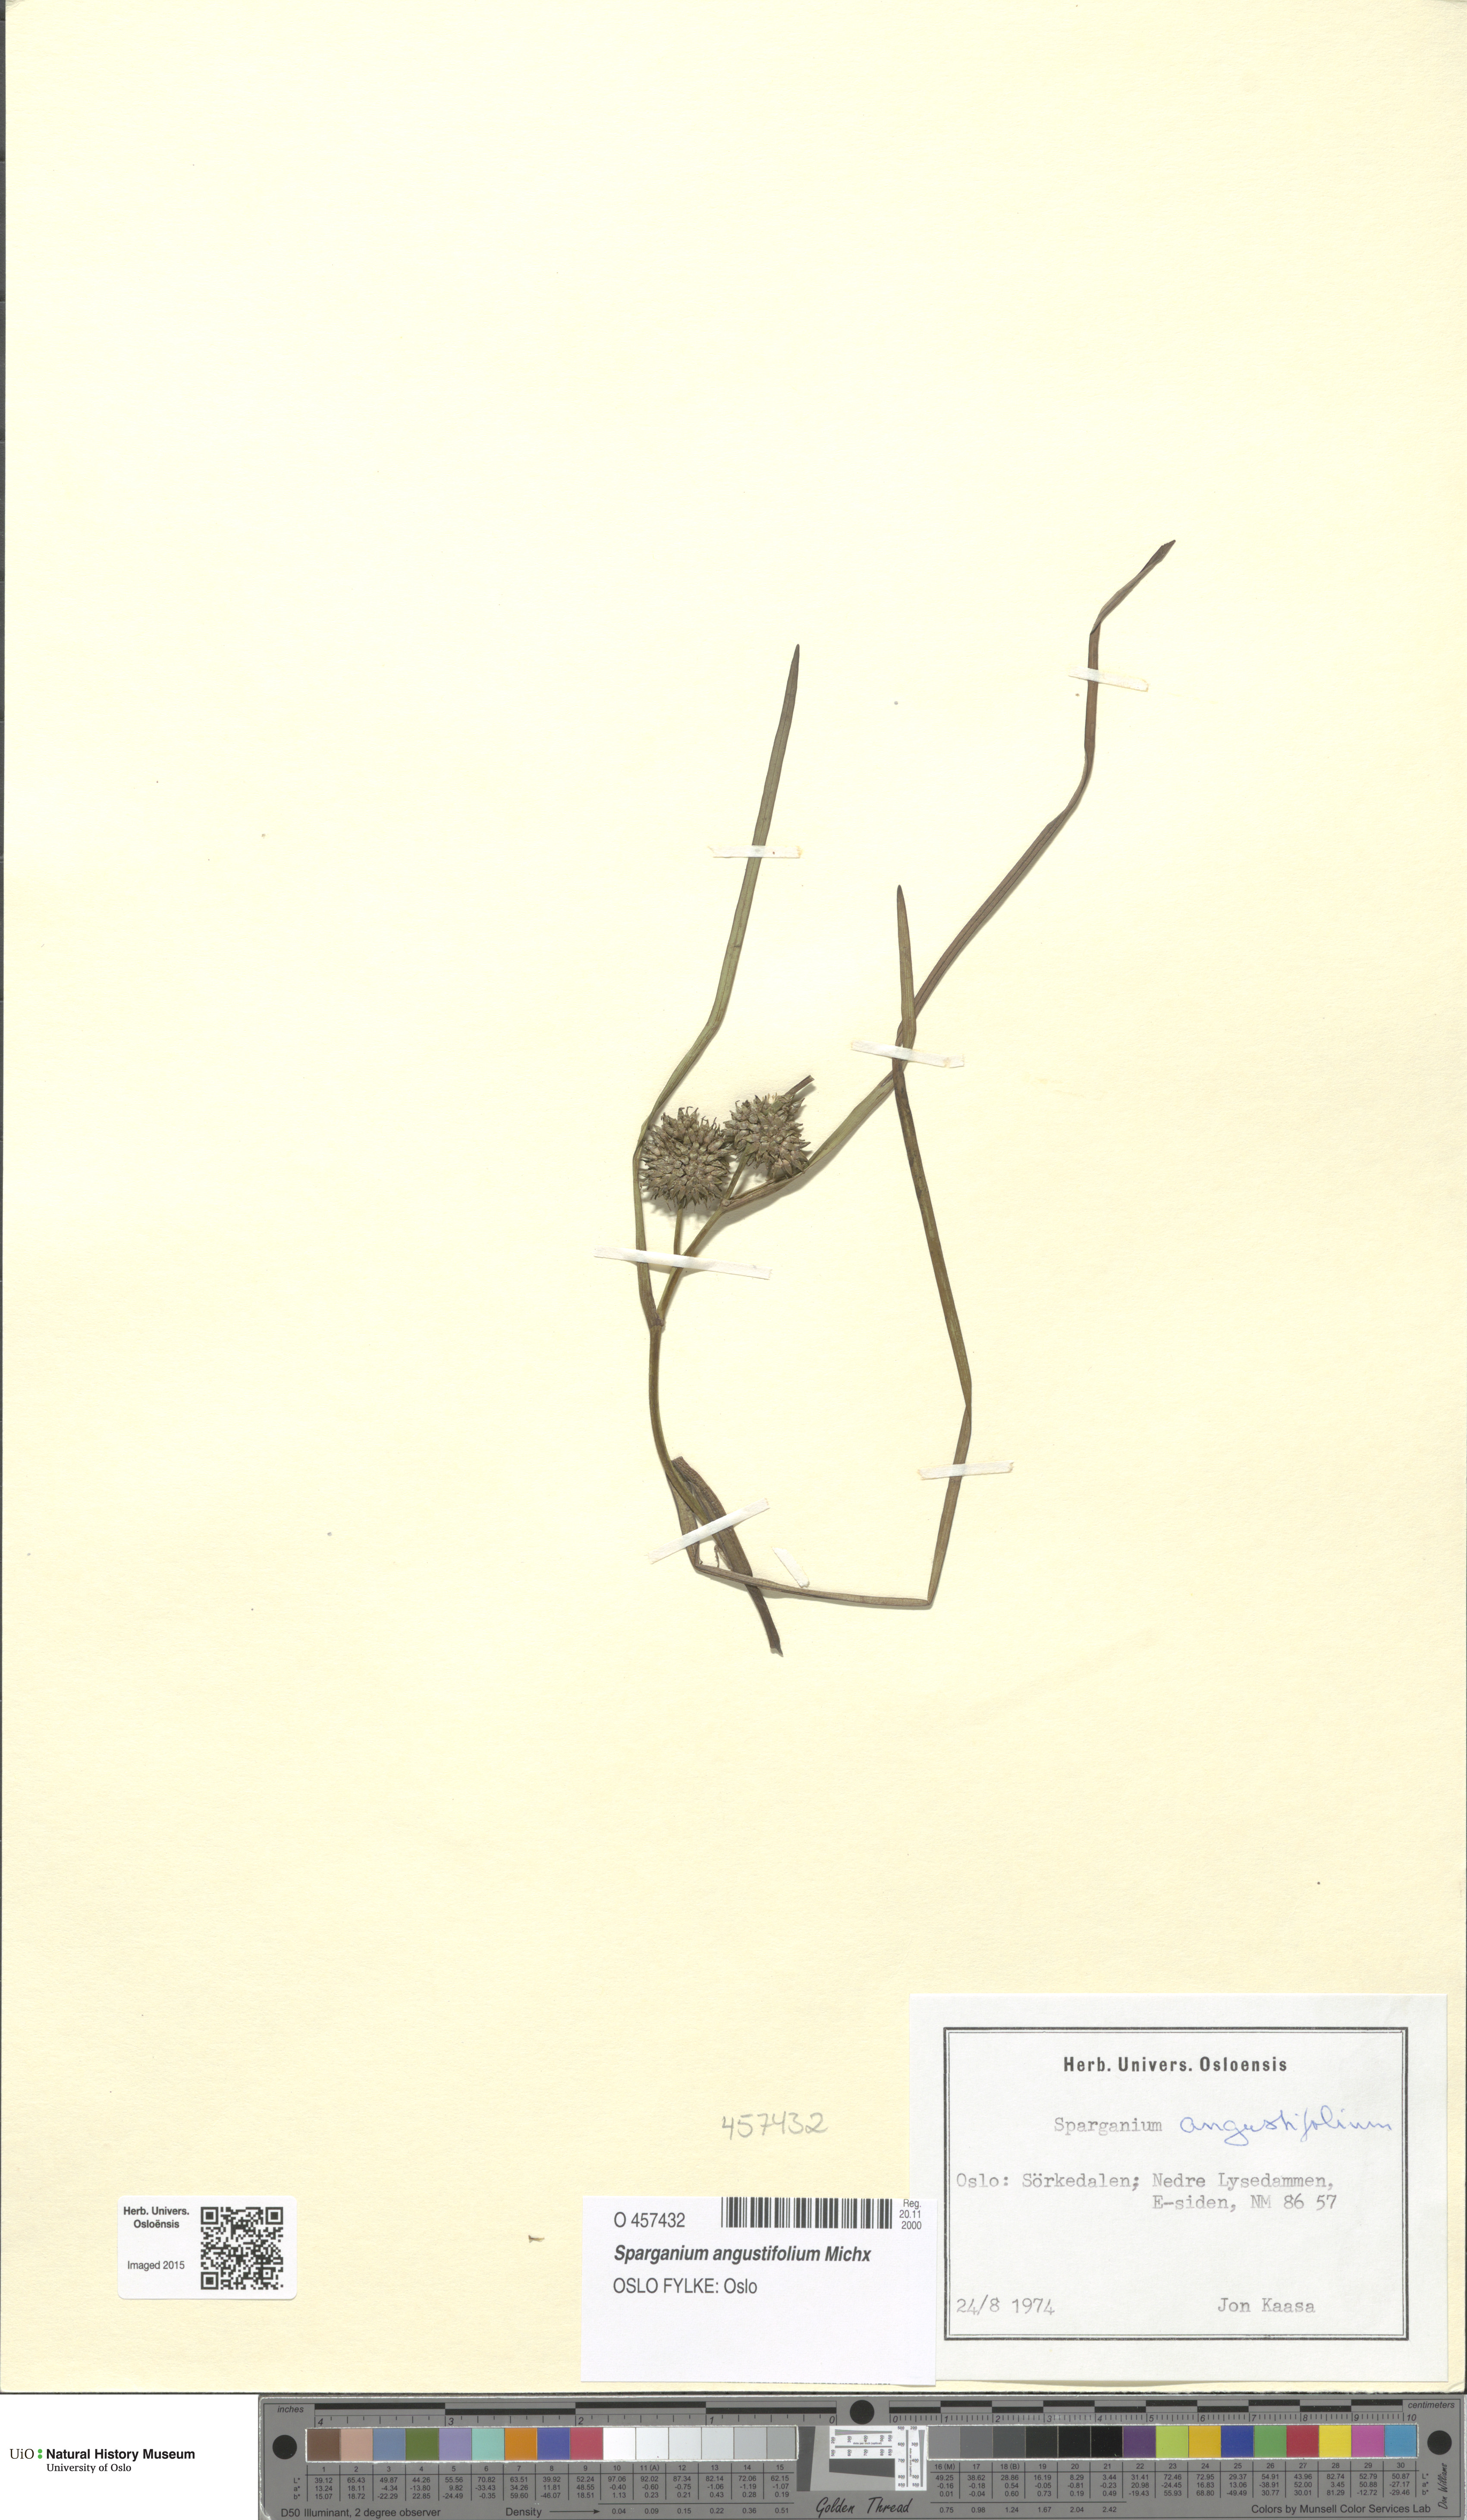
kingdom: Plantae
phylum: Tracheophyta
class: Liliopsida
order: Poales
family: Typhaceae
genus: Sparganium
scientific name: Sparganium angustifolium
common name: Floating bur-reed
